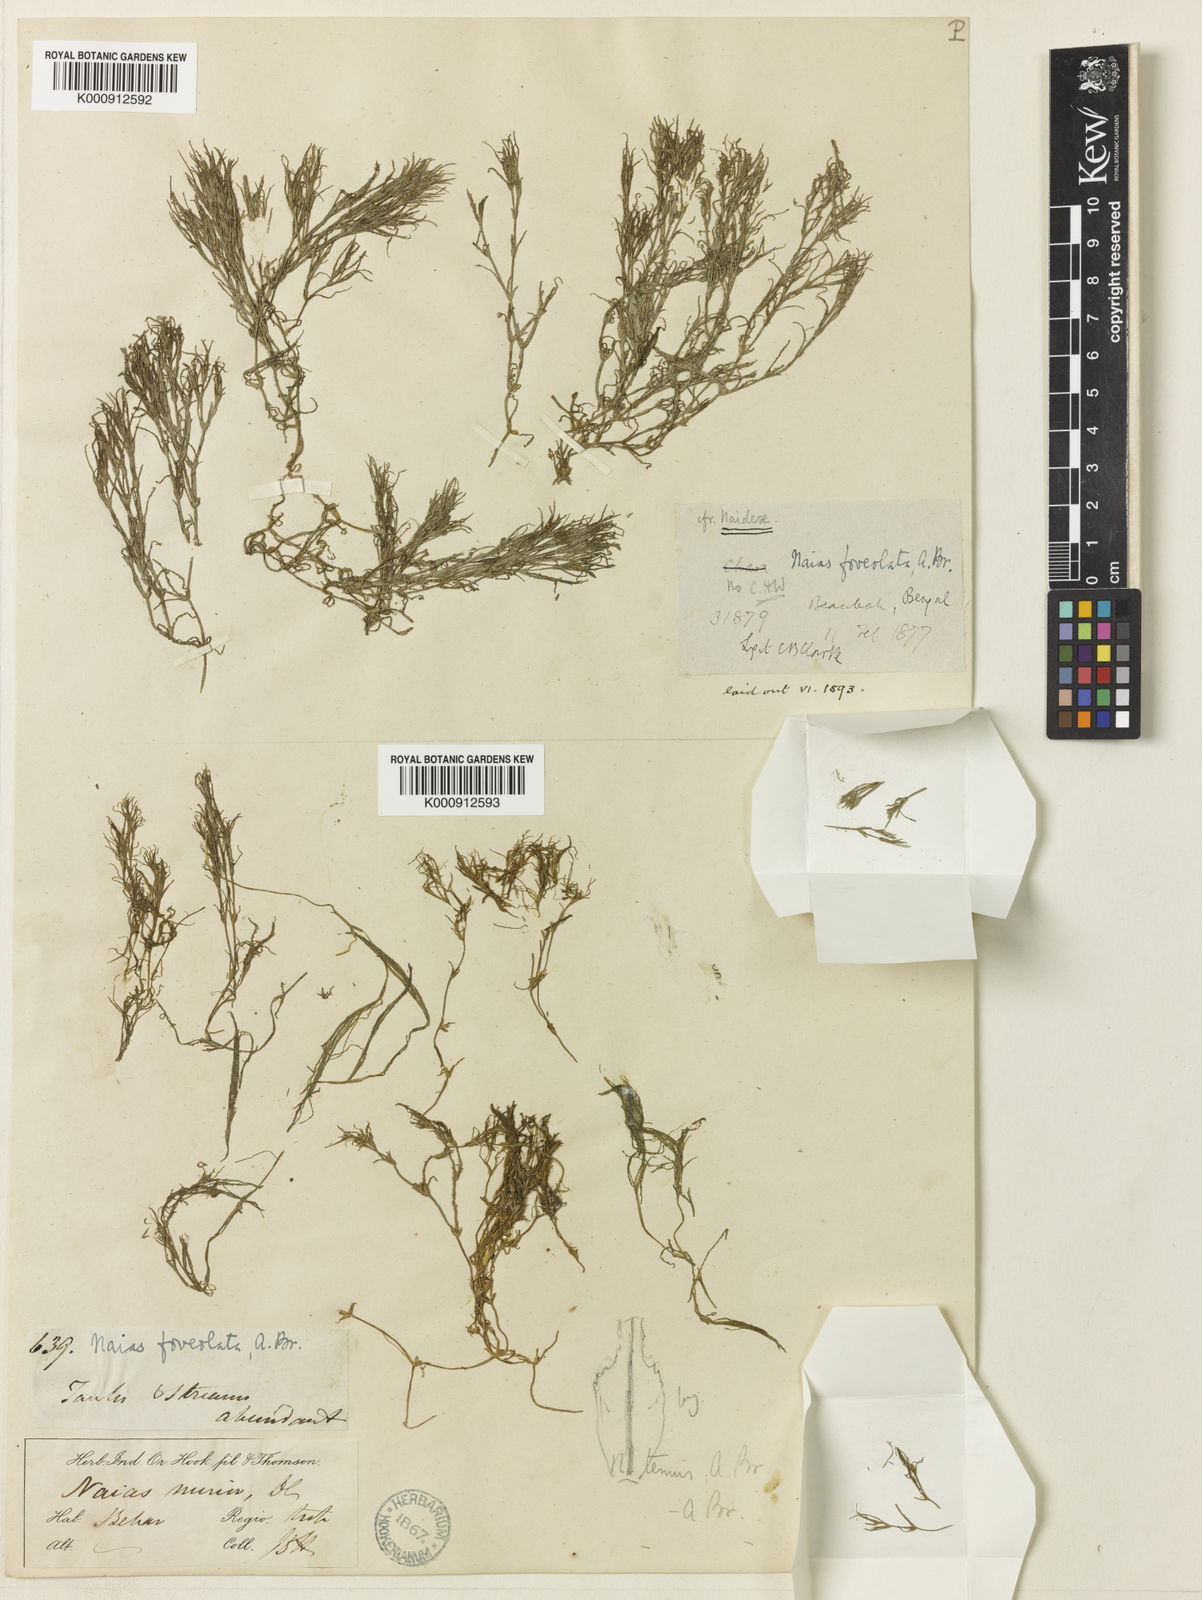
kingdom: Plantae
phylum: Tracheophyta
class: Liliopsida
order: Alismatales
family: Hydrocharitaceae
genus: Najas
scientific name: Najas marina
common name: Holly-leaved naiad
